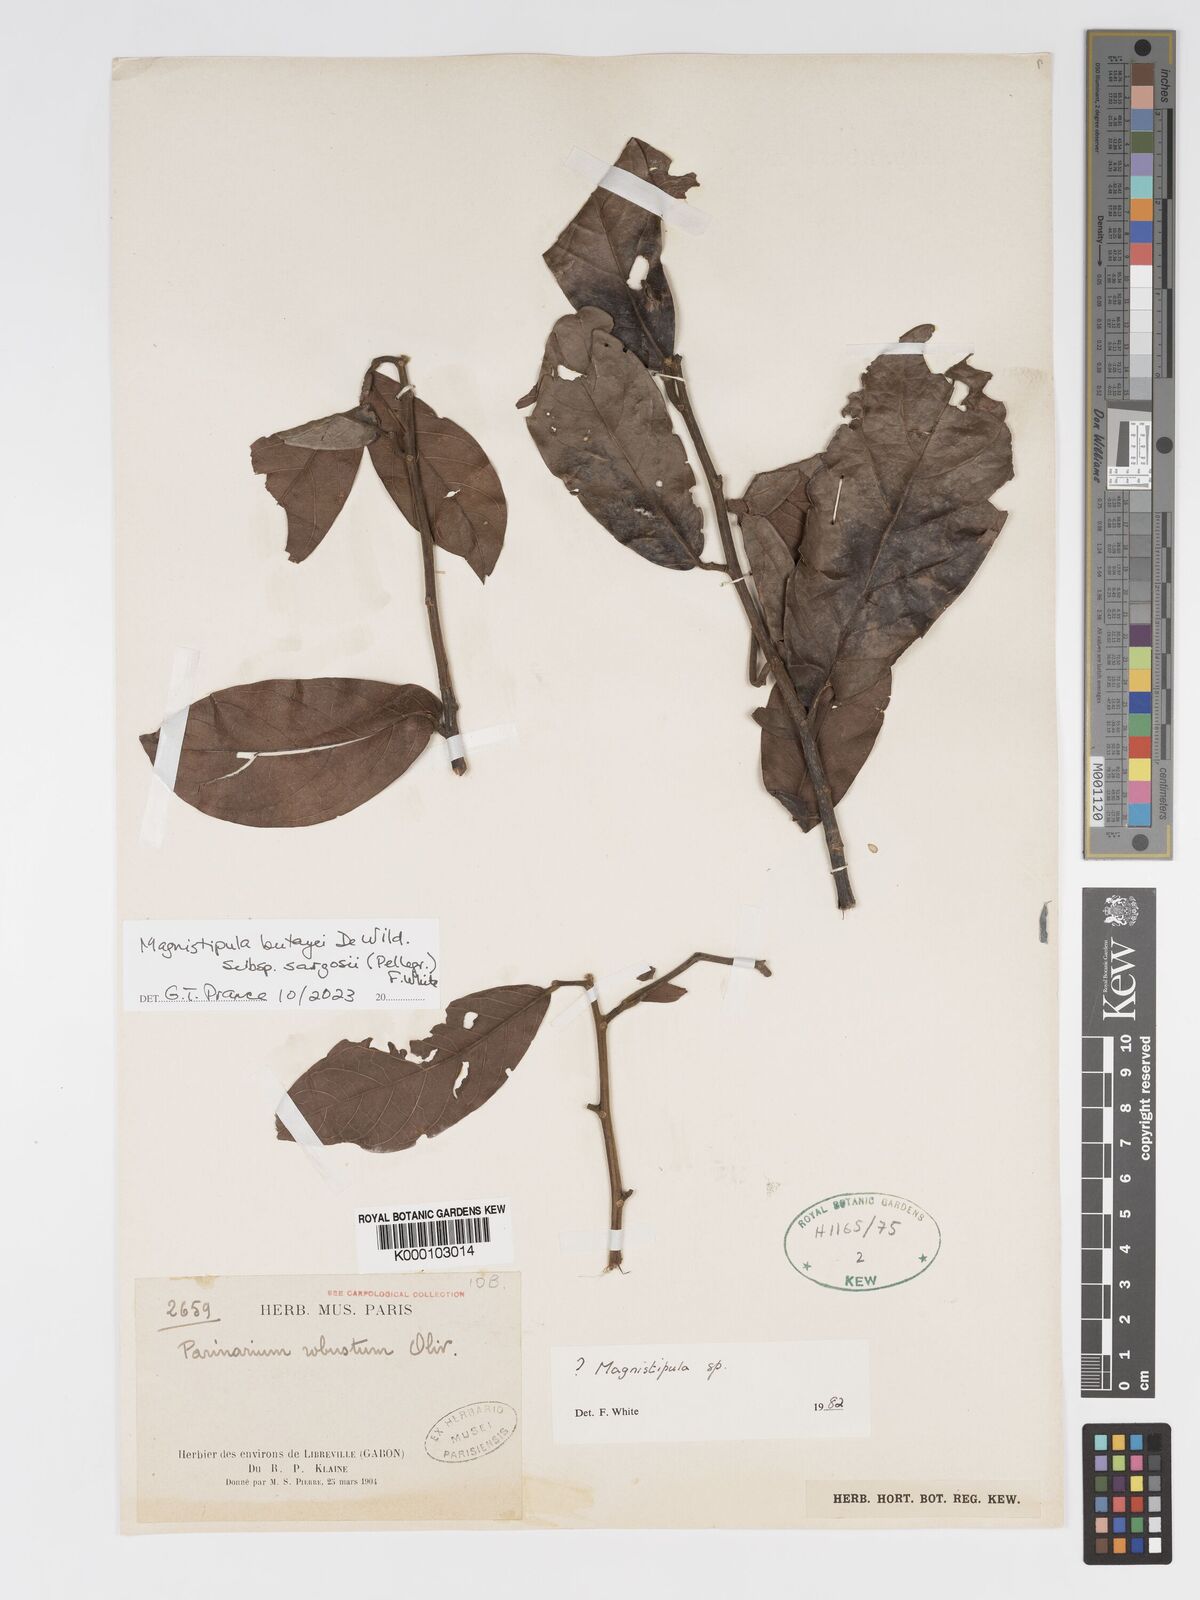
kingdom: Plantae
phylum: Tracheophyta
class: Magnoliopsida
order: Malpighiales
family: Chrysobalanaceae
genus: Magnistipula
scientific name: Magnistipula
